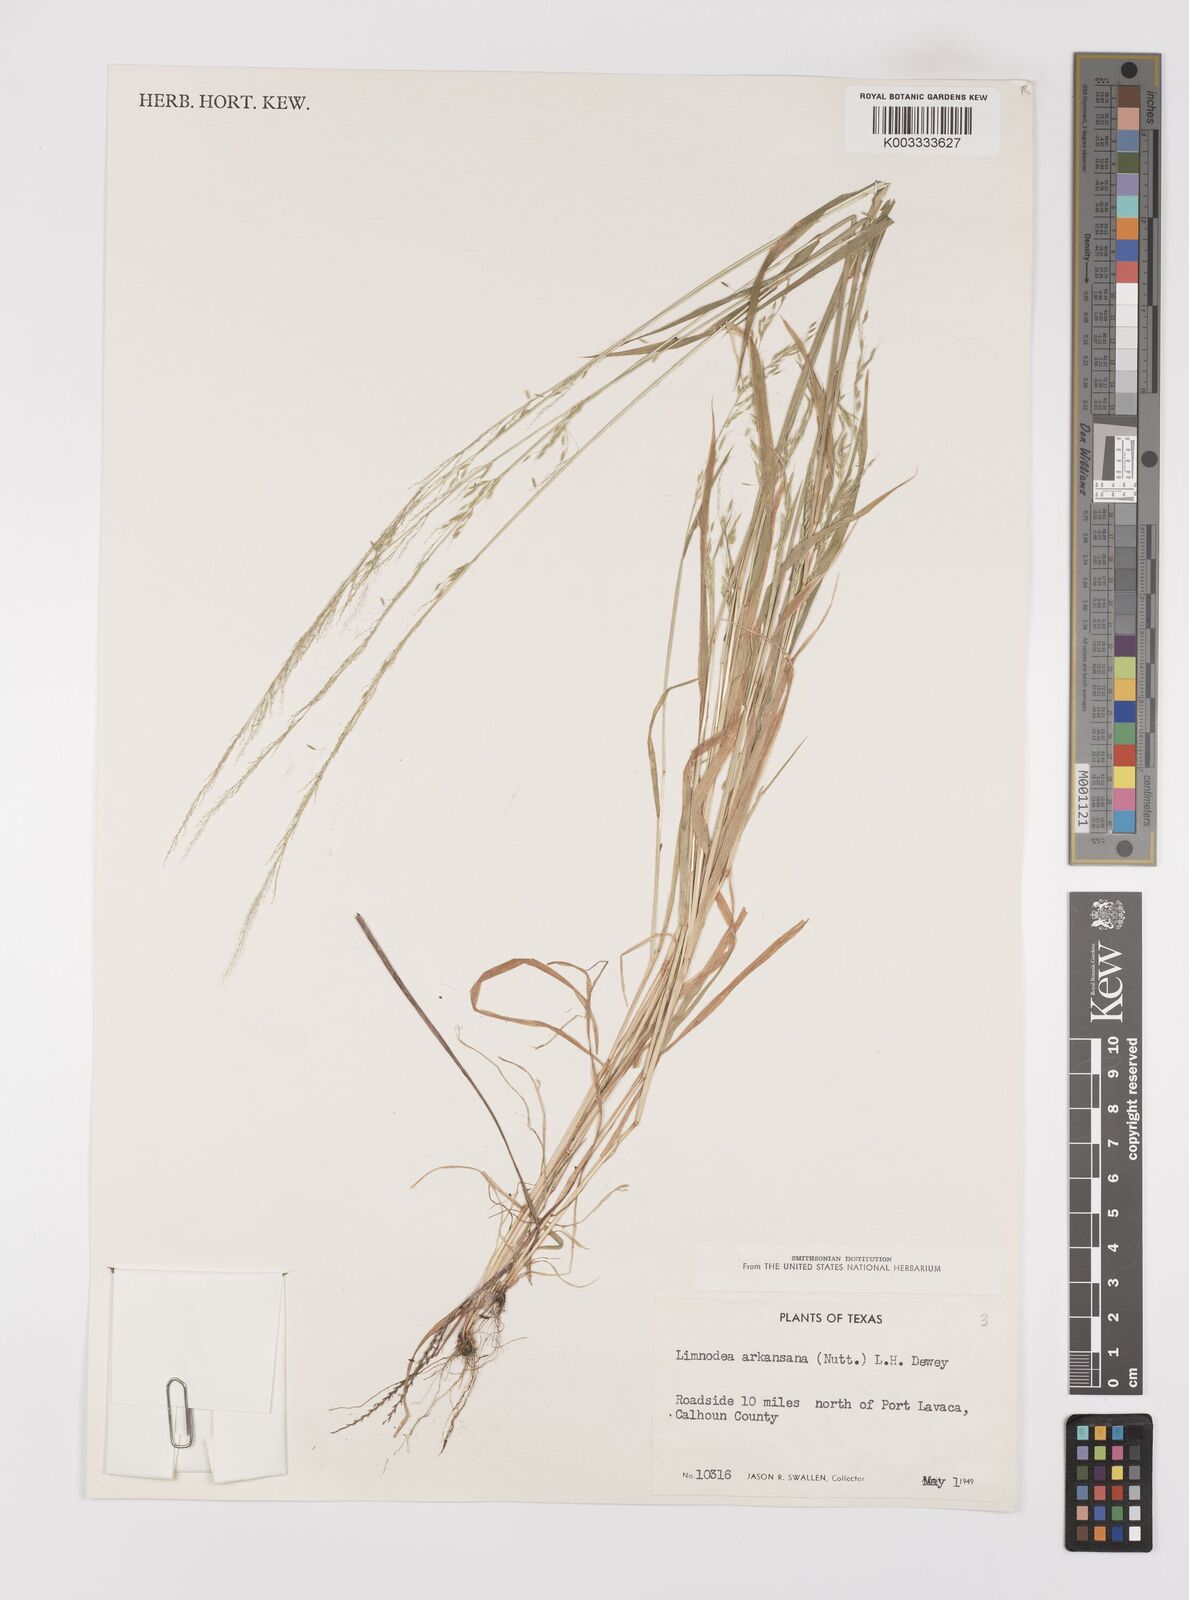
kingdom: Plantae
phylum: Tracheophyta
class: Liliopsida
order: Poales
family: Poaceae
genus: Limnodea
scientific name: Limnodea arkansana
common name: Ozark-grass
